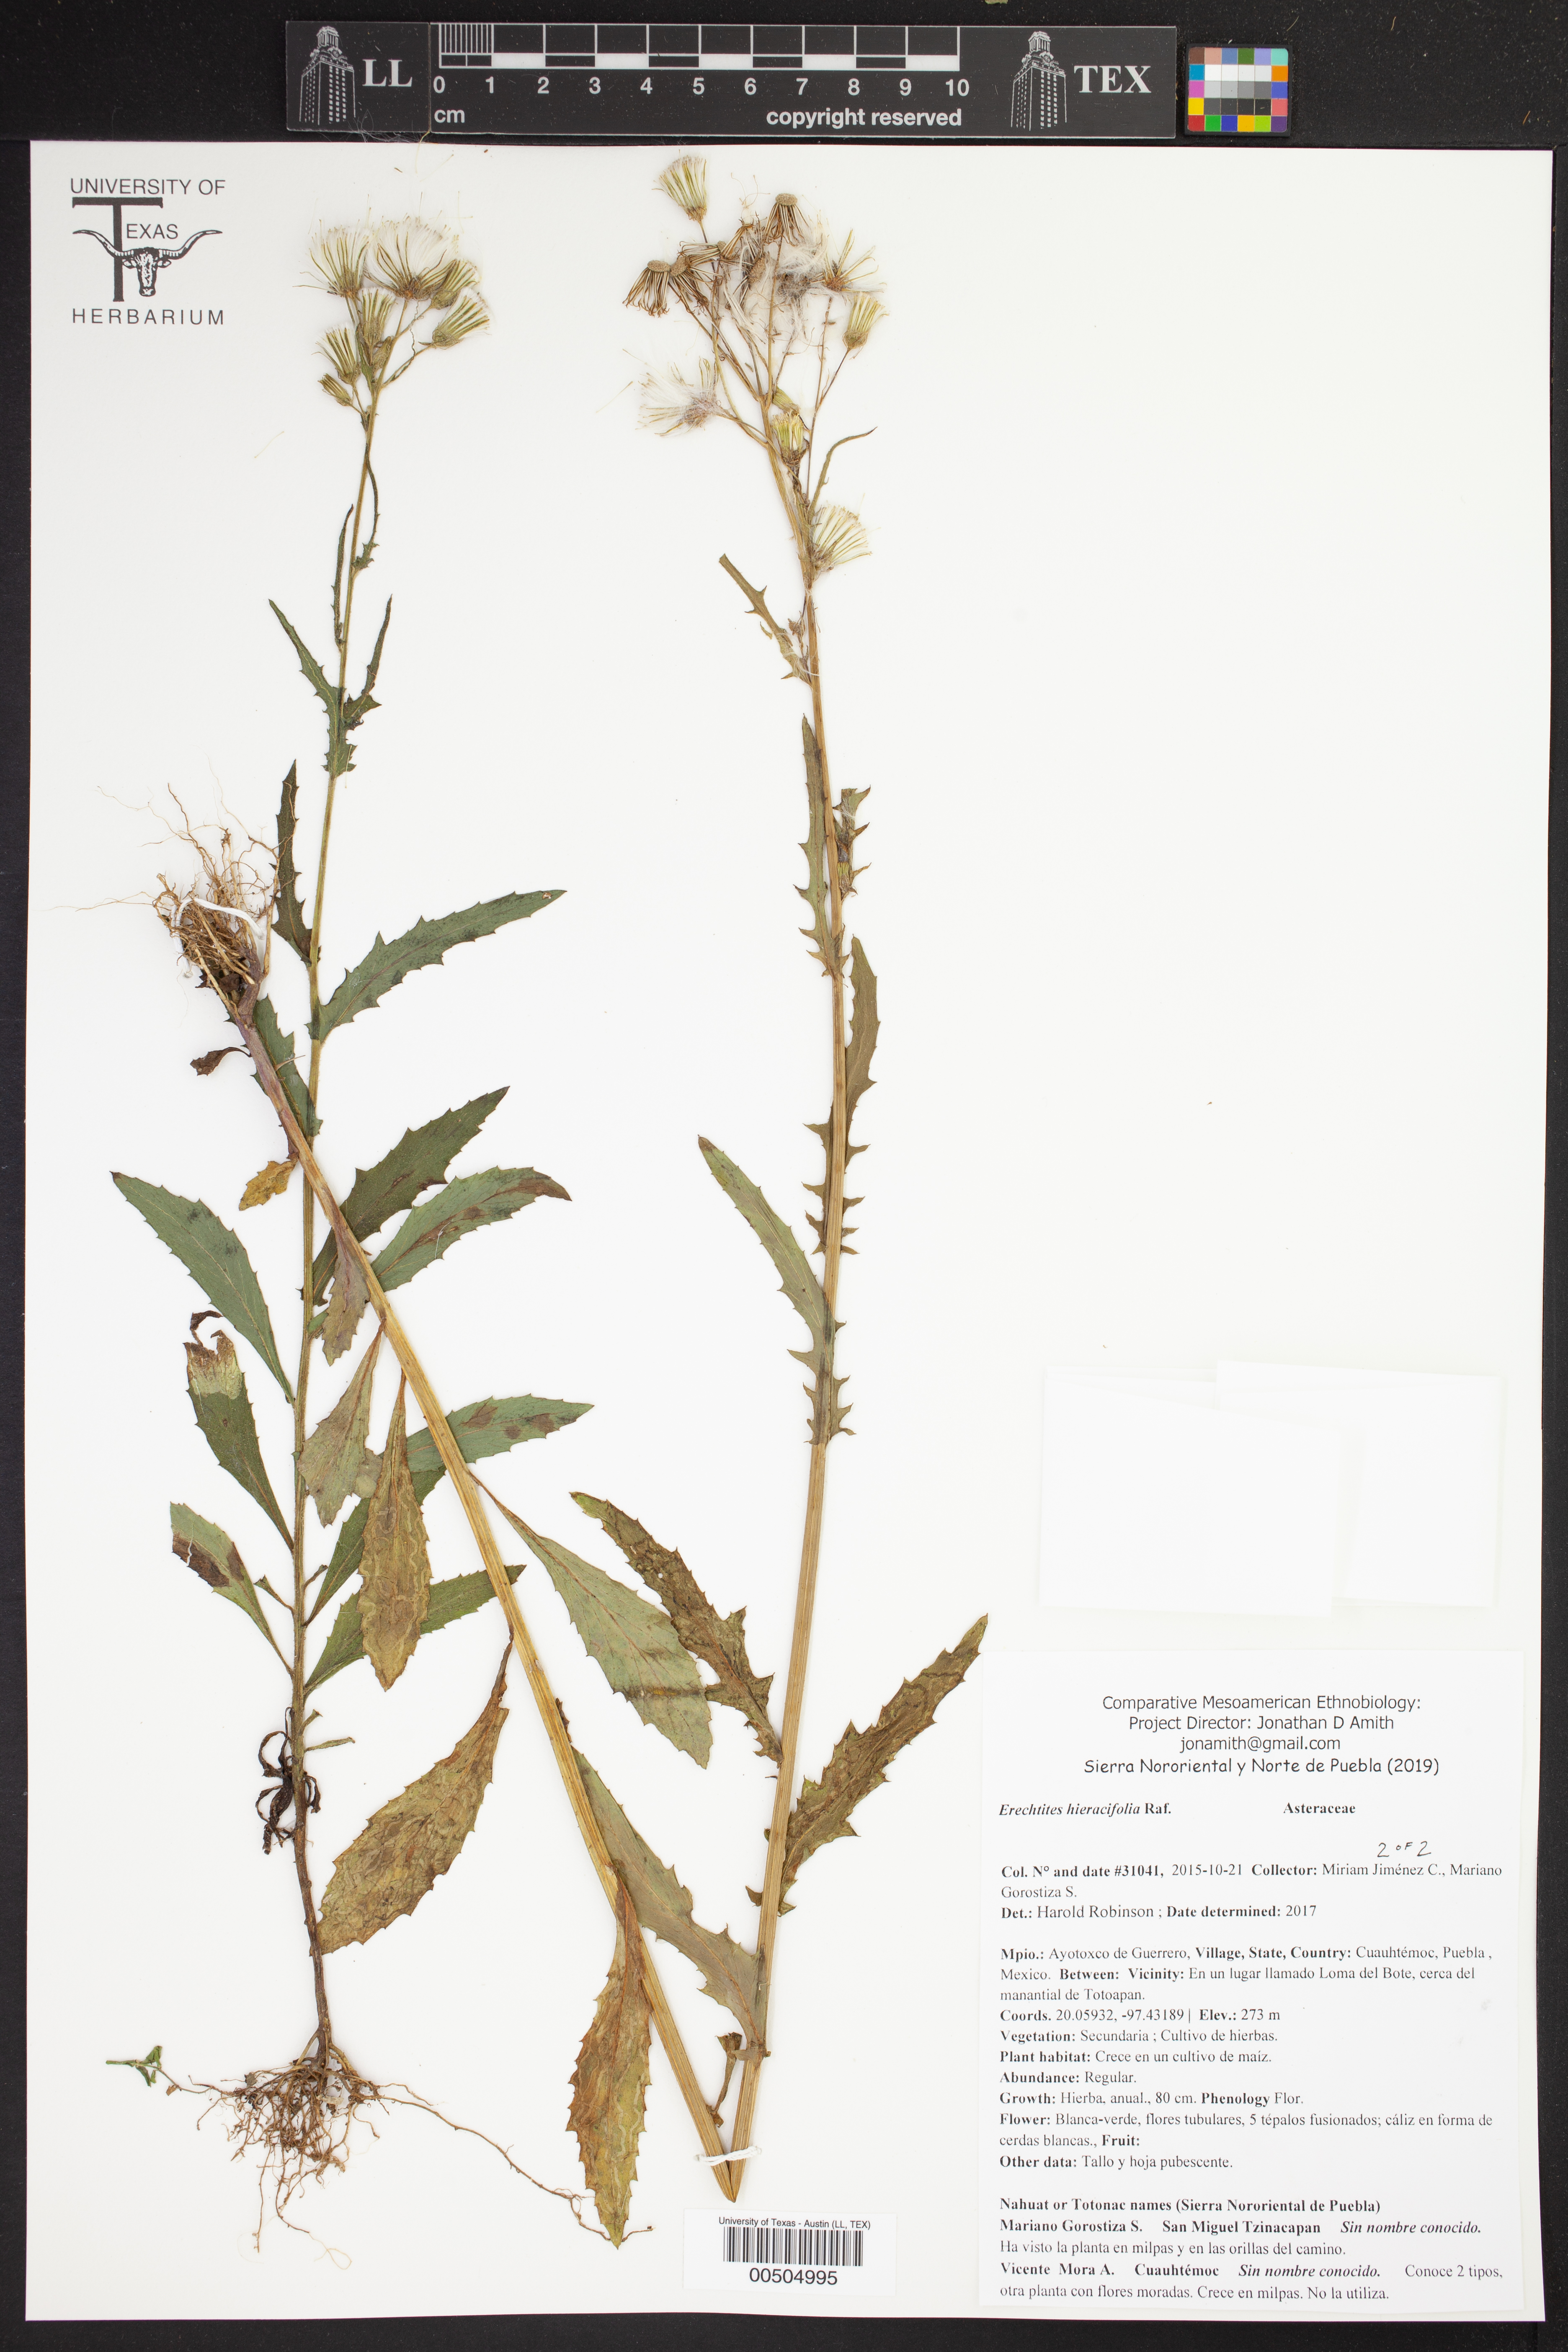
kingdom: Plantae
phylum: Tracheophyta
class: Magnoliopsida
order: Asterales
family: Asteraceae
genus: Erechtites
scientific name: Erechtites hieraciifolius
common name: American burnweed
